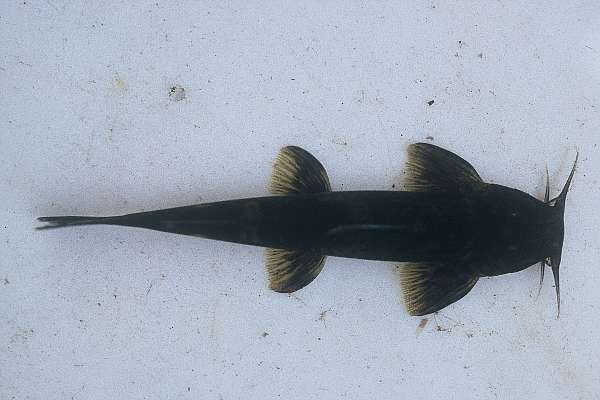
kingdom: Animalia
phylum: Chordata
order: Siluriformes
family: Amphiliidae
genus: Amphilius
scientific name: Amphilius uranoscopus
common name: Stargazer mountain catfish
